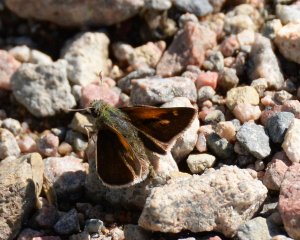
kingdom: Animalia
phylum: Arthropoda
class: Insecta
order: Lepidoptera
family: Hesperiidae
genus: Polites
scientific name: Polites themistocles
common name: Tawny-edged Skipper
